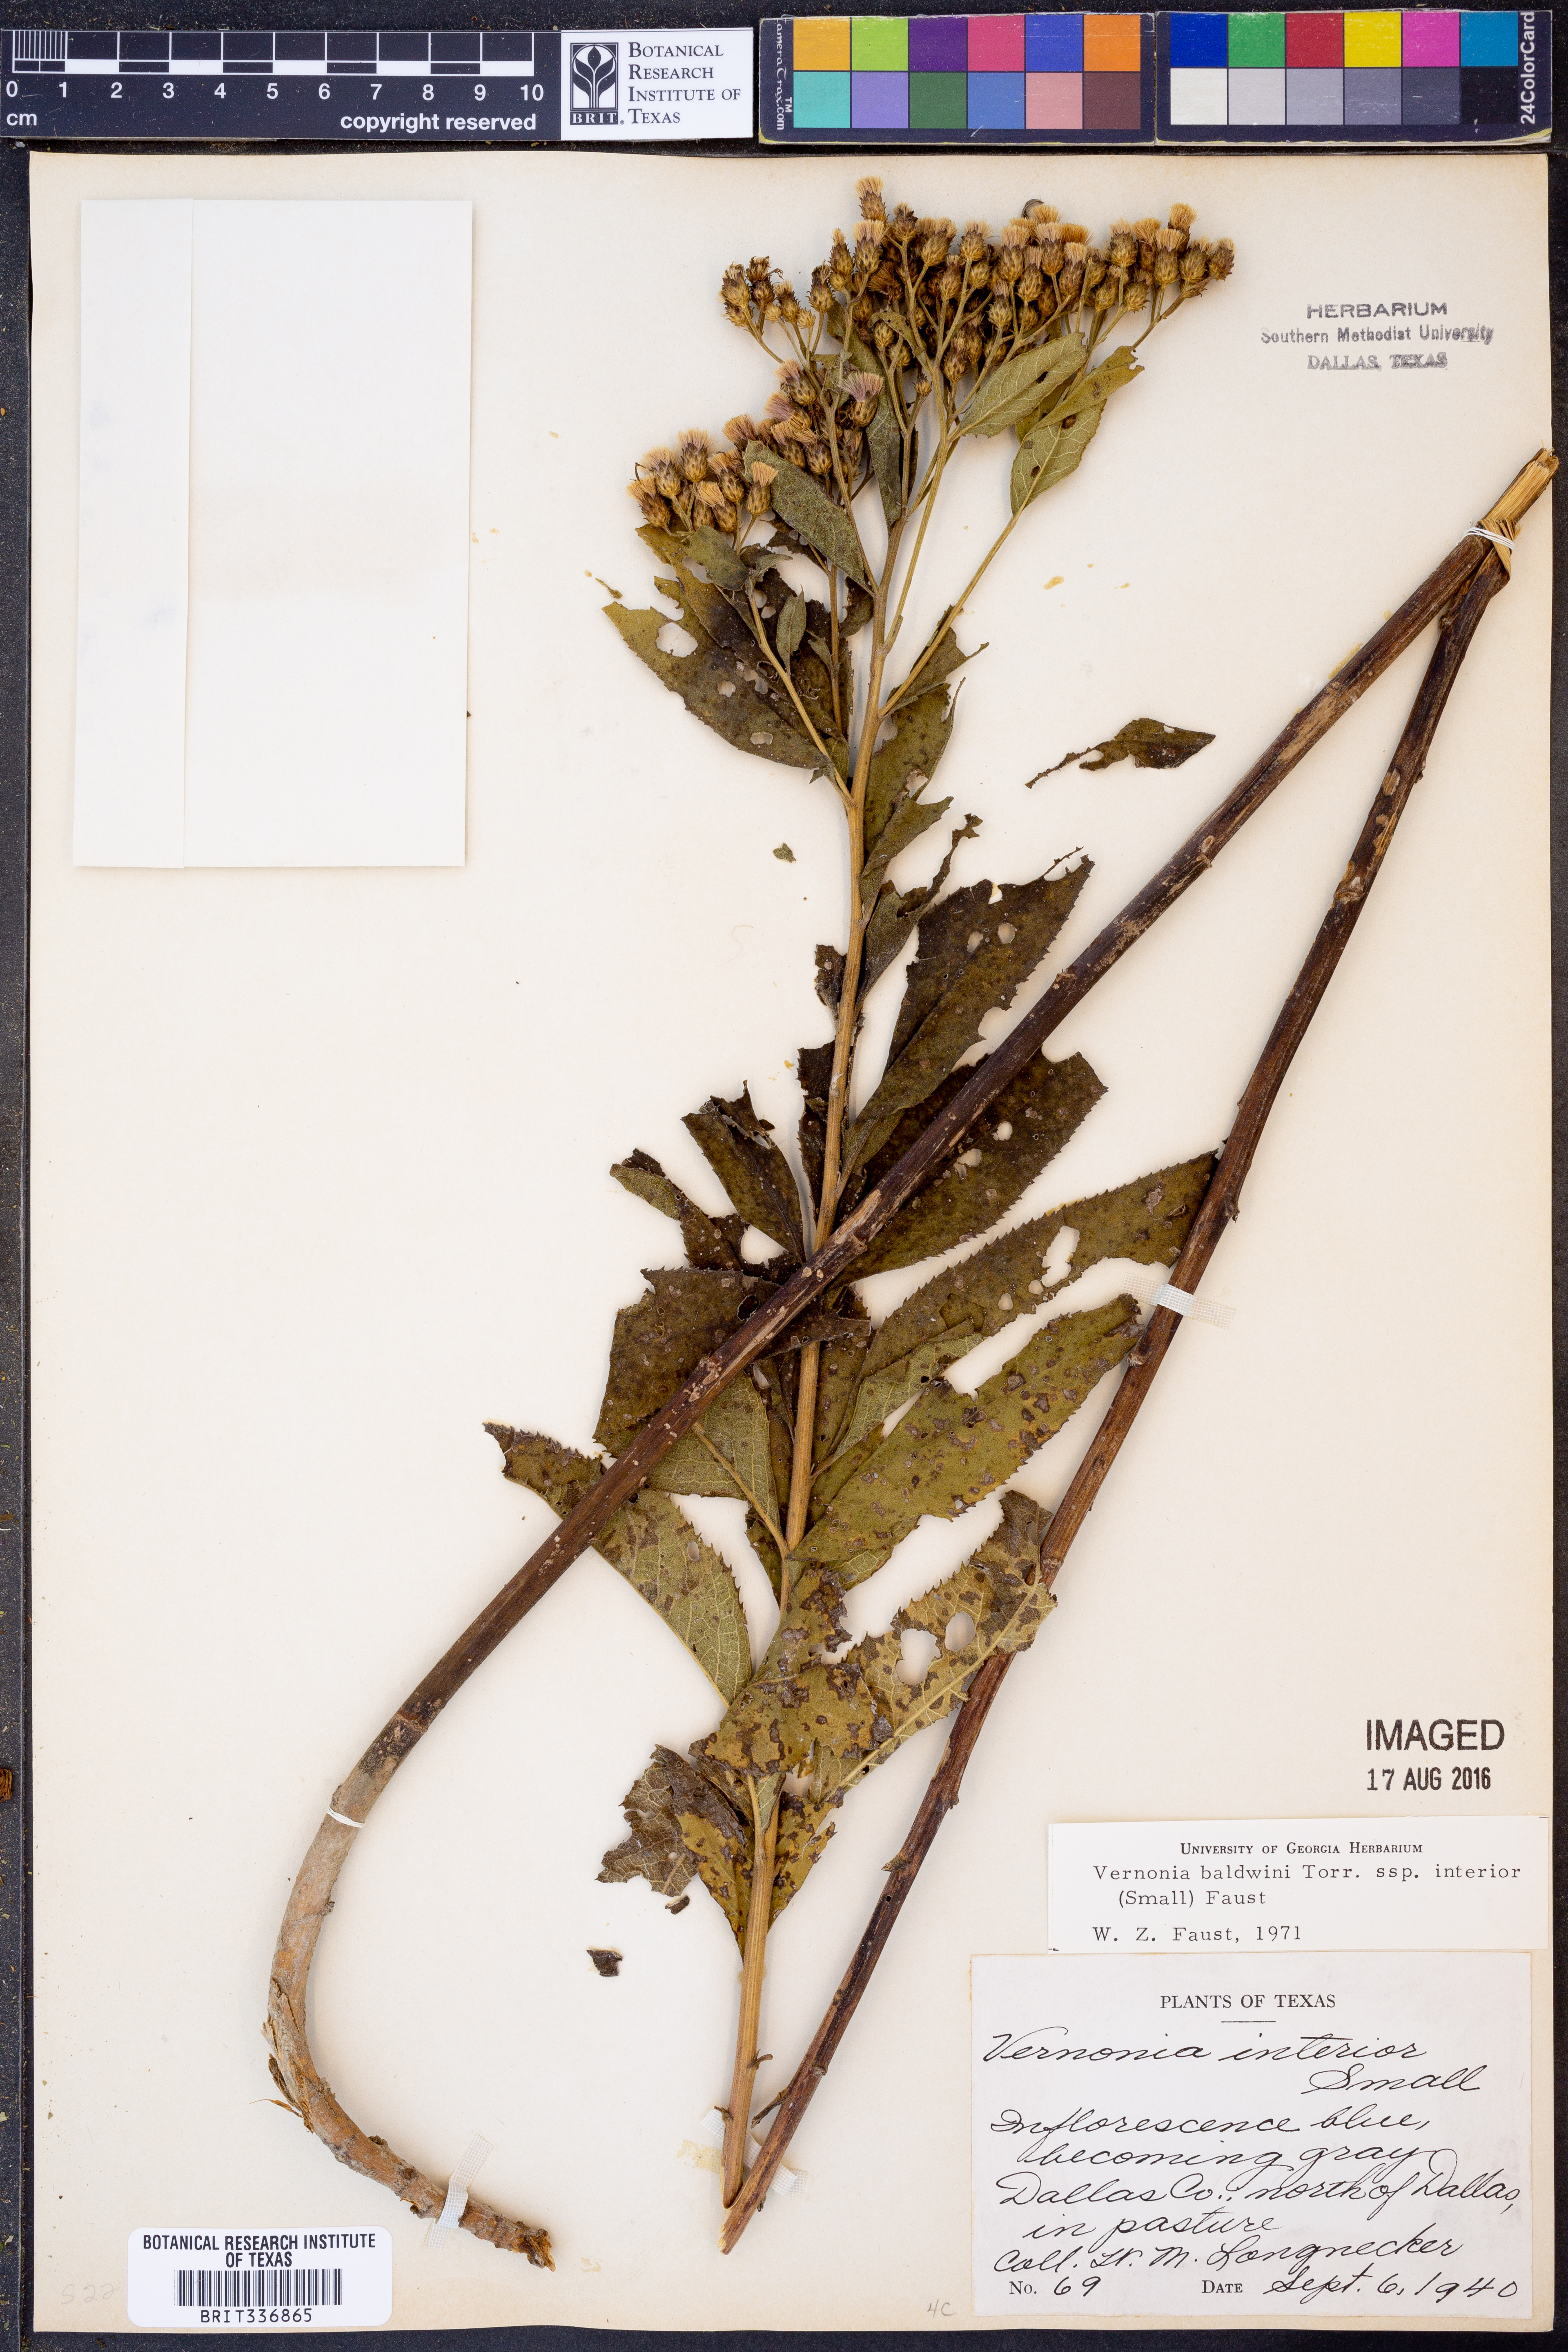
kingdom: Plantae
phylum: Tracheophyta
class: Magnoliopsida
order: Asterales
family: Asteraceae
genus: Vernonia
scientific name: Vernonia baldwinii
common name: Western ironweed
